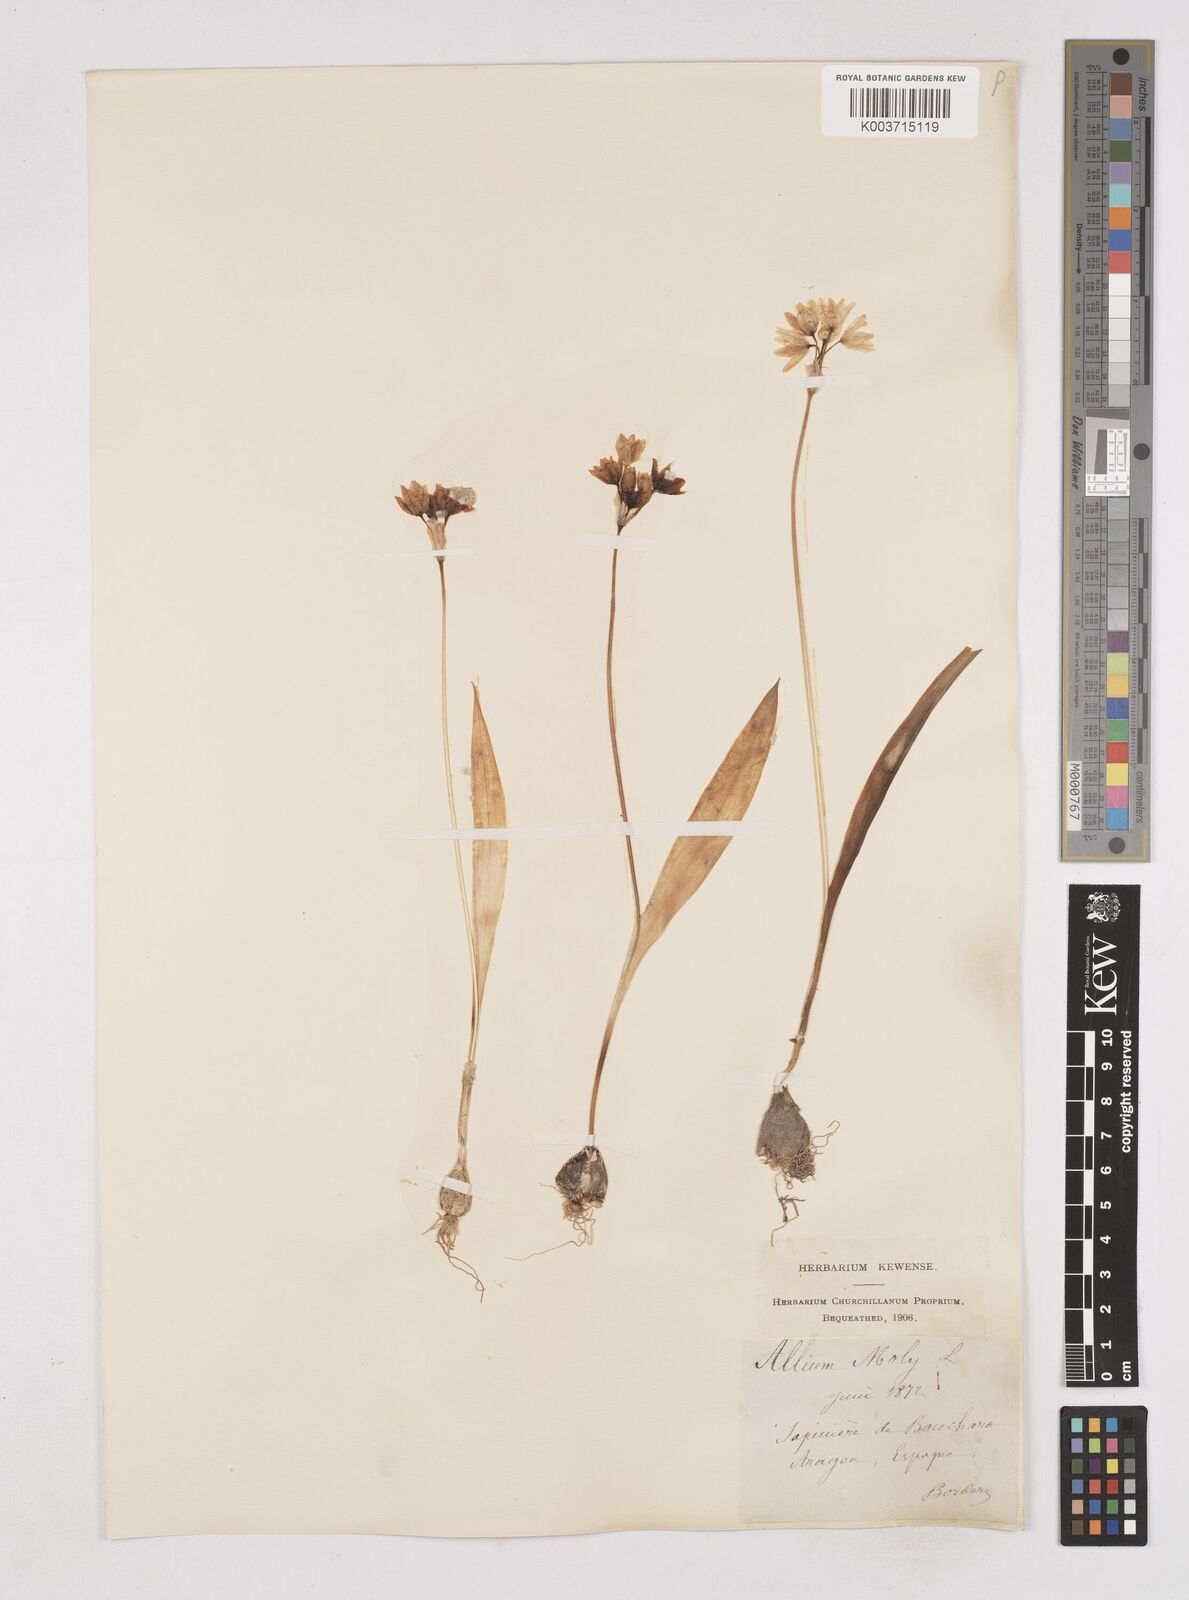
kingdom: Plantae
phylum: Tracheophyta
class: Liliopsida
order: Asparagales
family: Amaryllidaceae
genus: Allium
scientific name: Allium moly
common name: Yellow garlic
